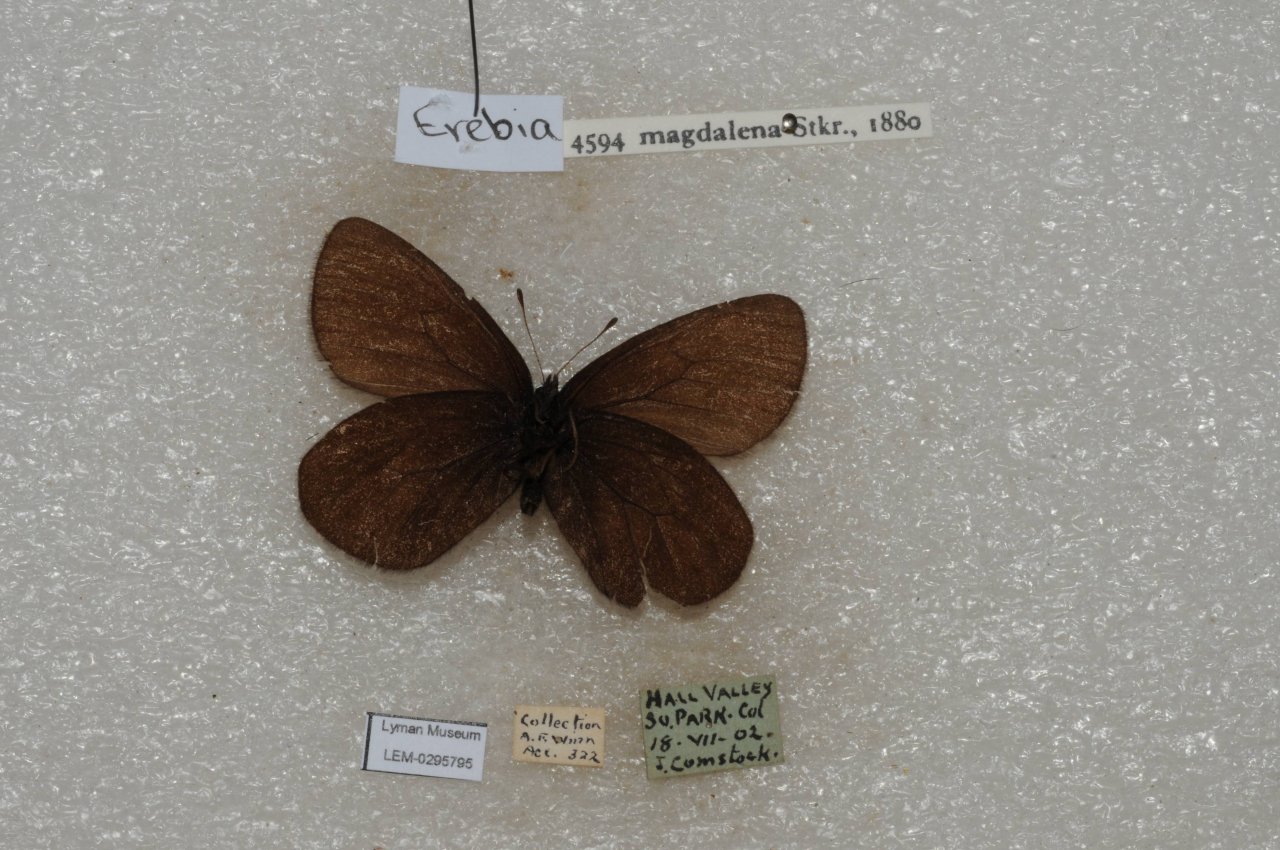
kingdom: Animalia
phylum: Arthropoda
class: Insecta
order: Lepidoptera
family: Nymphalidae
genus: Erebia
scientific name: Erebia magdalena
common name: Magdalena Alpine
